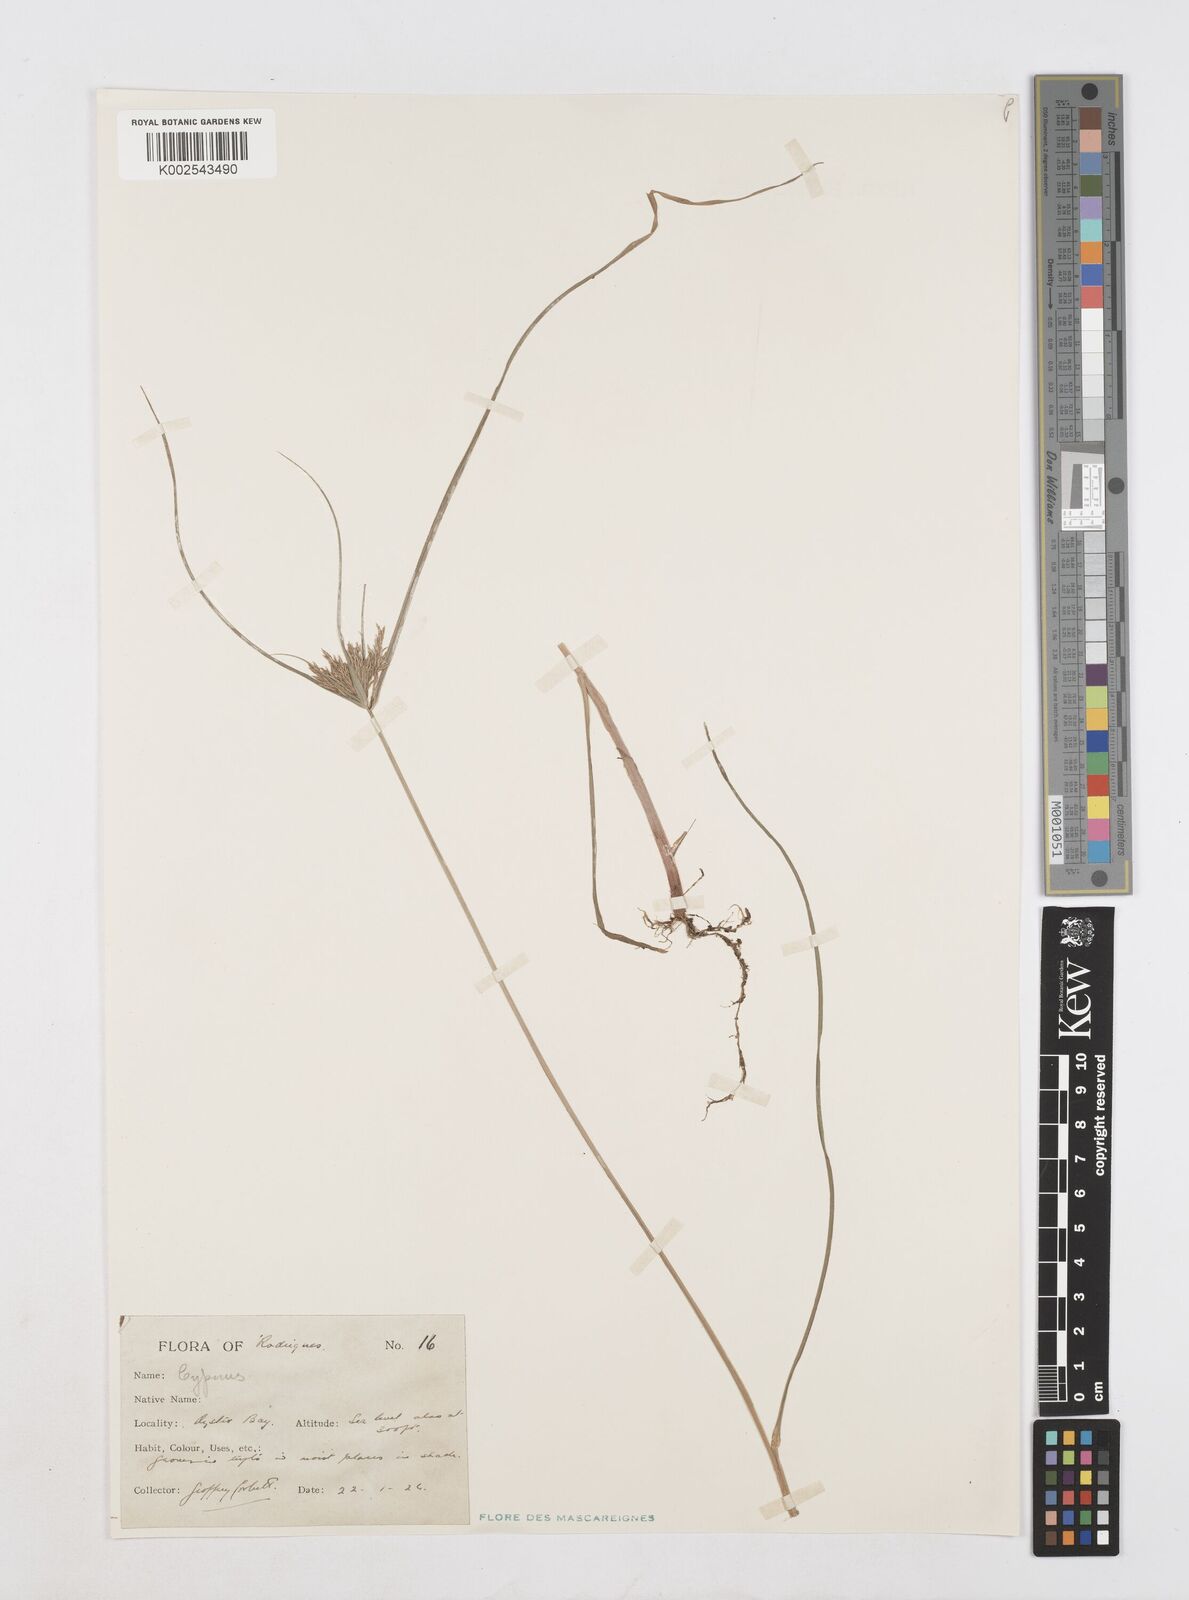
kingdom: Plantae
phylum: Tracheophyta
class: Liliopsida
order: Poales
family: Cyperaceae
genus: Cyperus
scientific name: Cyperus polystachyos
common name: Bunchy flat sedge
